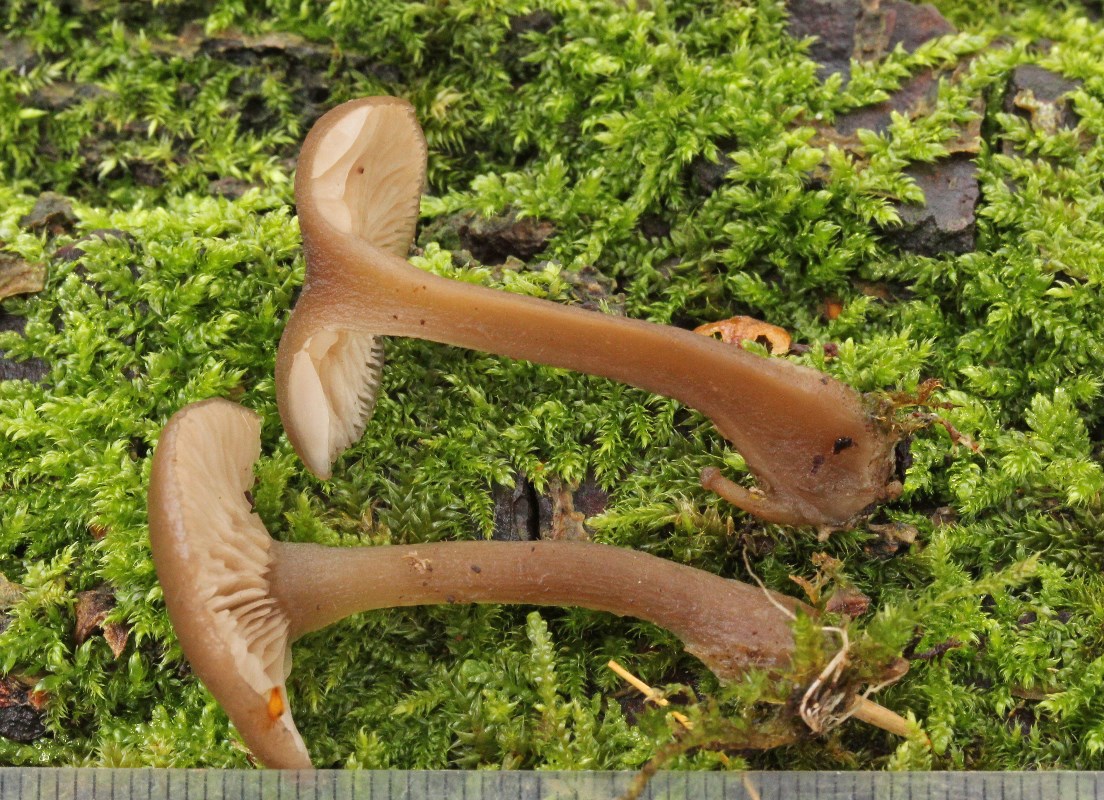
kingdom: Fungi
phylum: Basidiomycota
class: Agaricomycetes
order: Agaricales
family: Pseudoclitocybaceae
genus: Pseudoclitocybe
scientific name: Pseudoclitocybe cyathiformis
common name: almindelig bægertragthat
